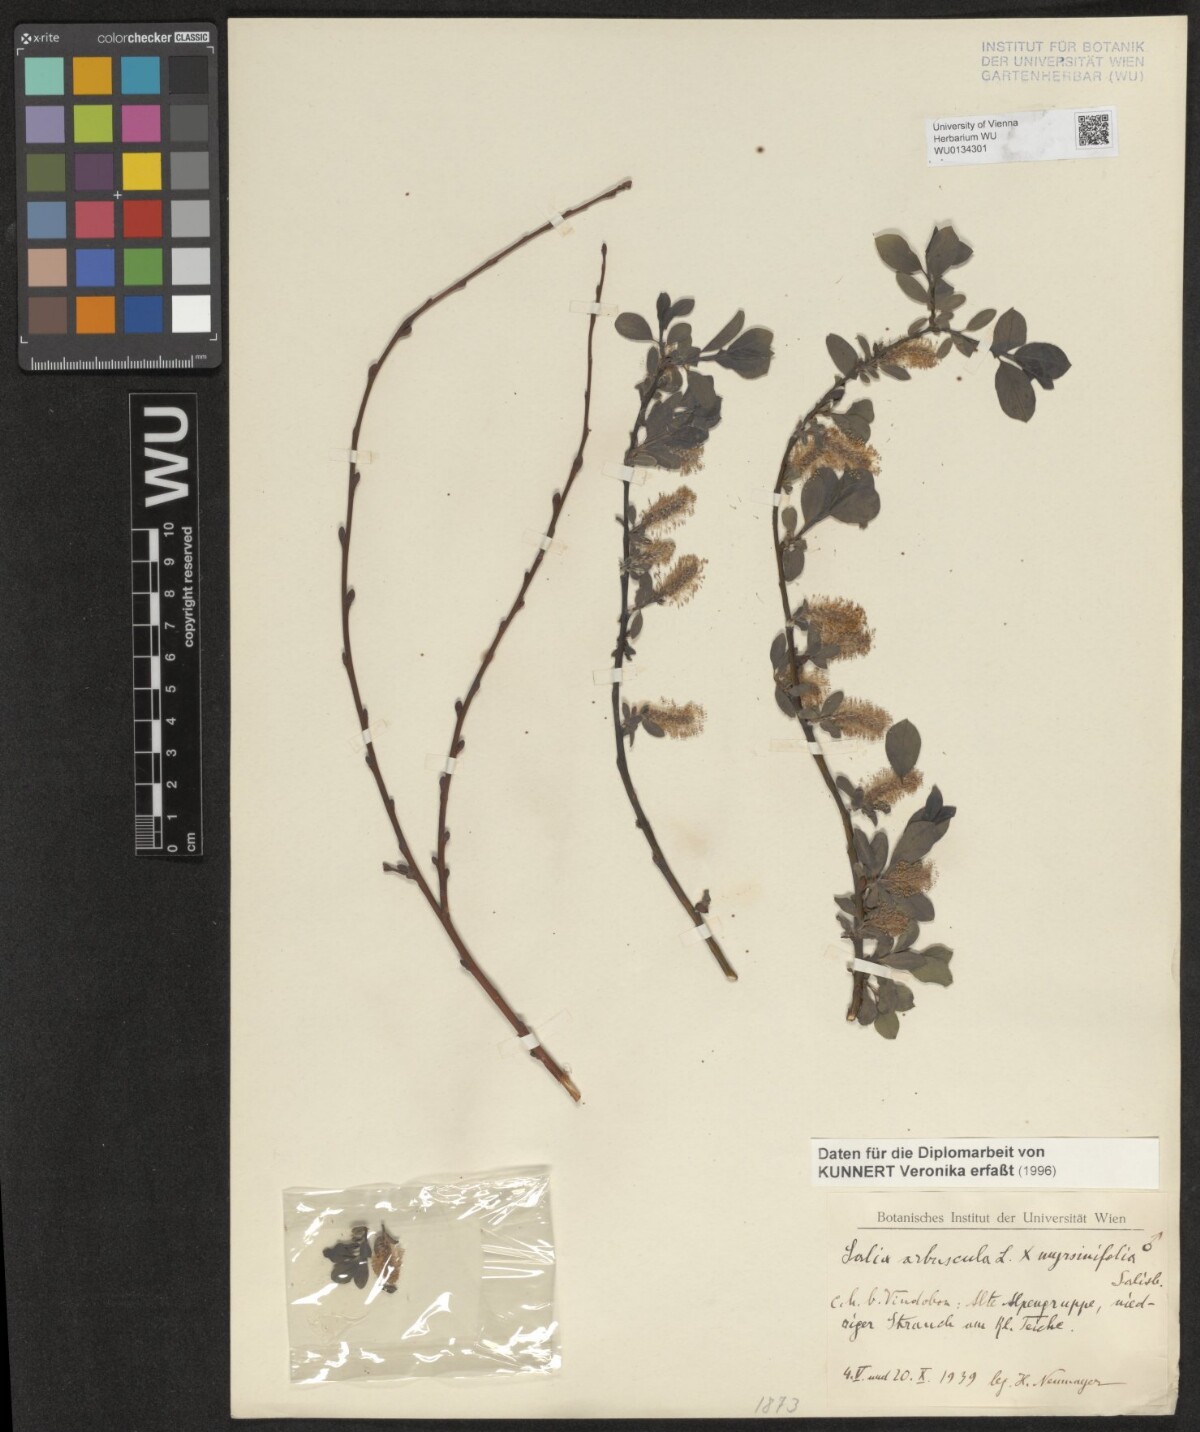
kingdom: Plantae
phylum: Tracheophyta
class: Magnoliopsida
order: Malpighiales
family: Salicaceae
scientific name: Salicaceae
